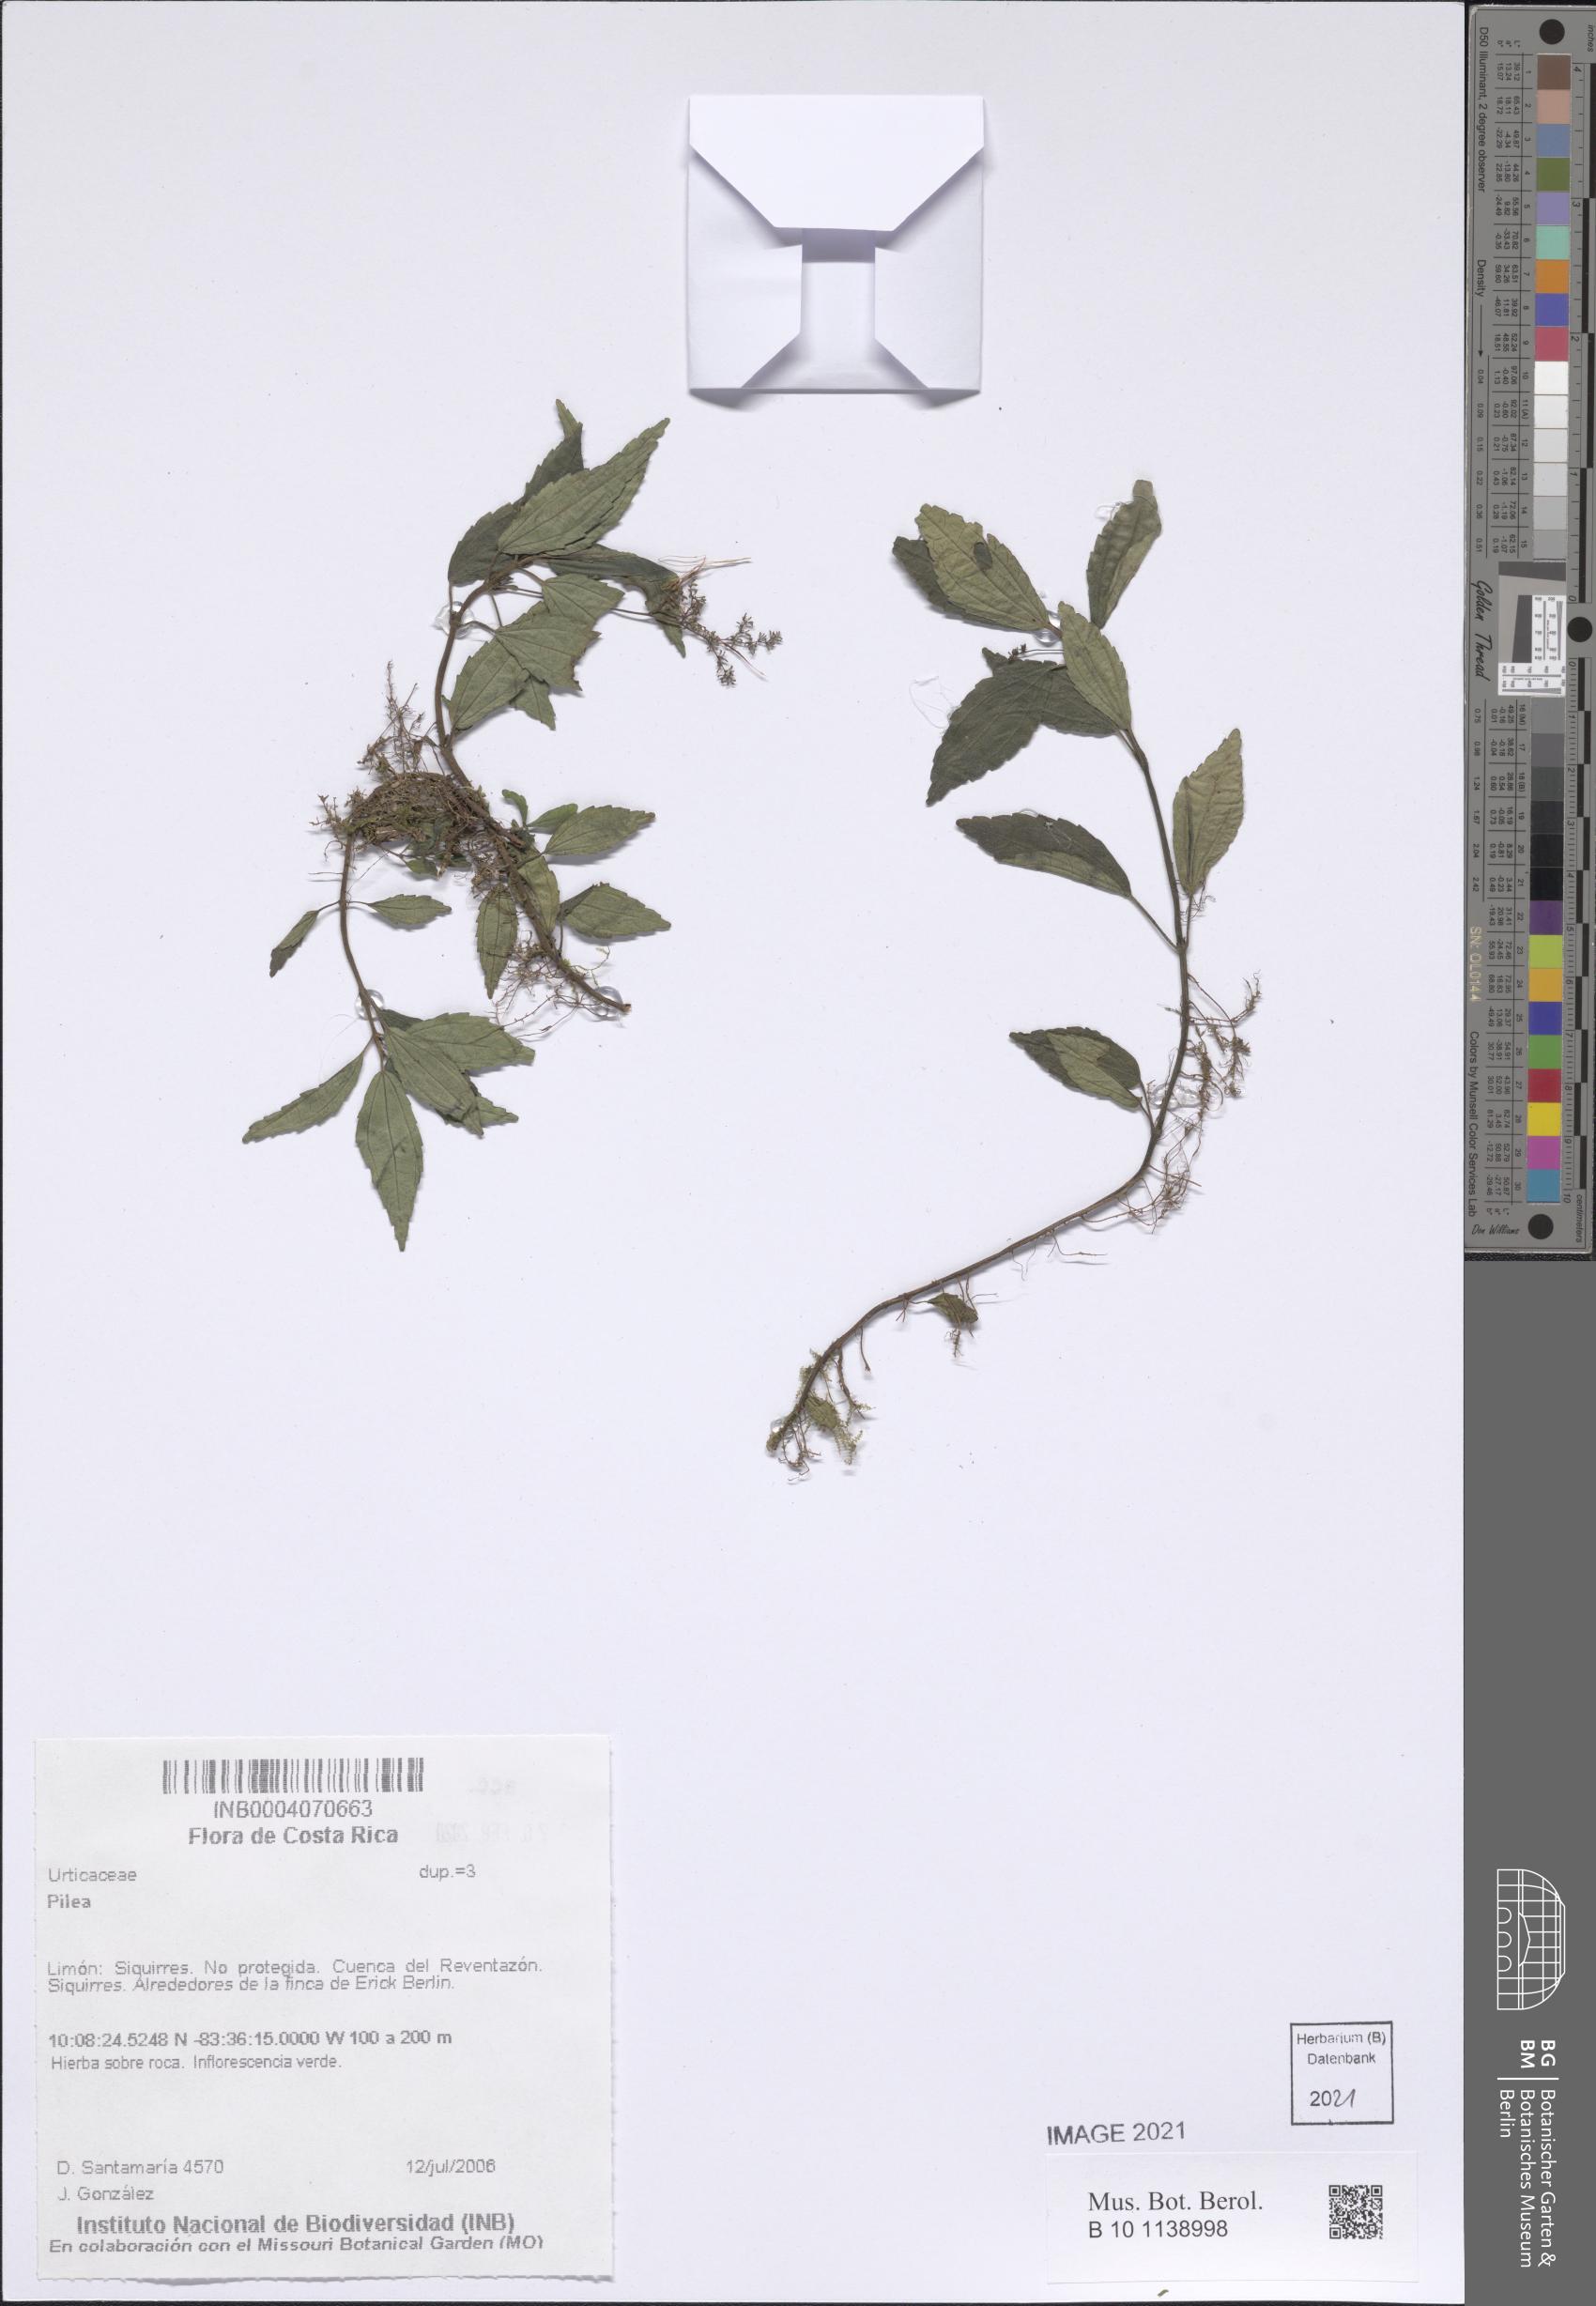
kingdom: Plantae
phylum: Tracheophyta
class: Magnoliopsida
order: Rosales
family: Urticaceae
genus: Pilea
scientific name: Pilea
